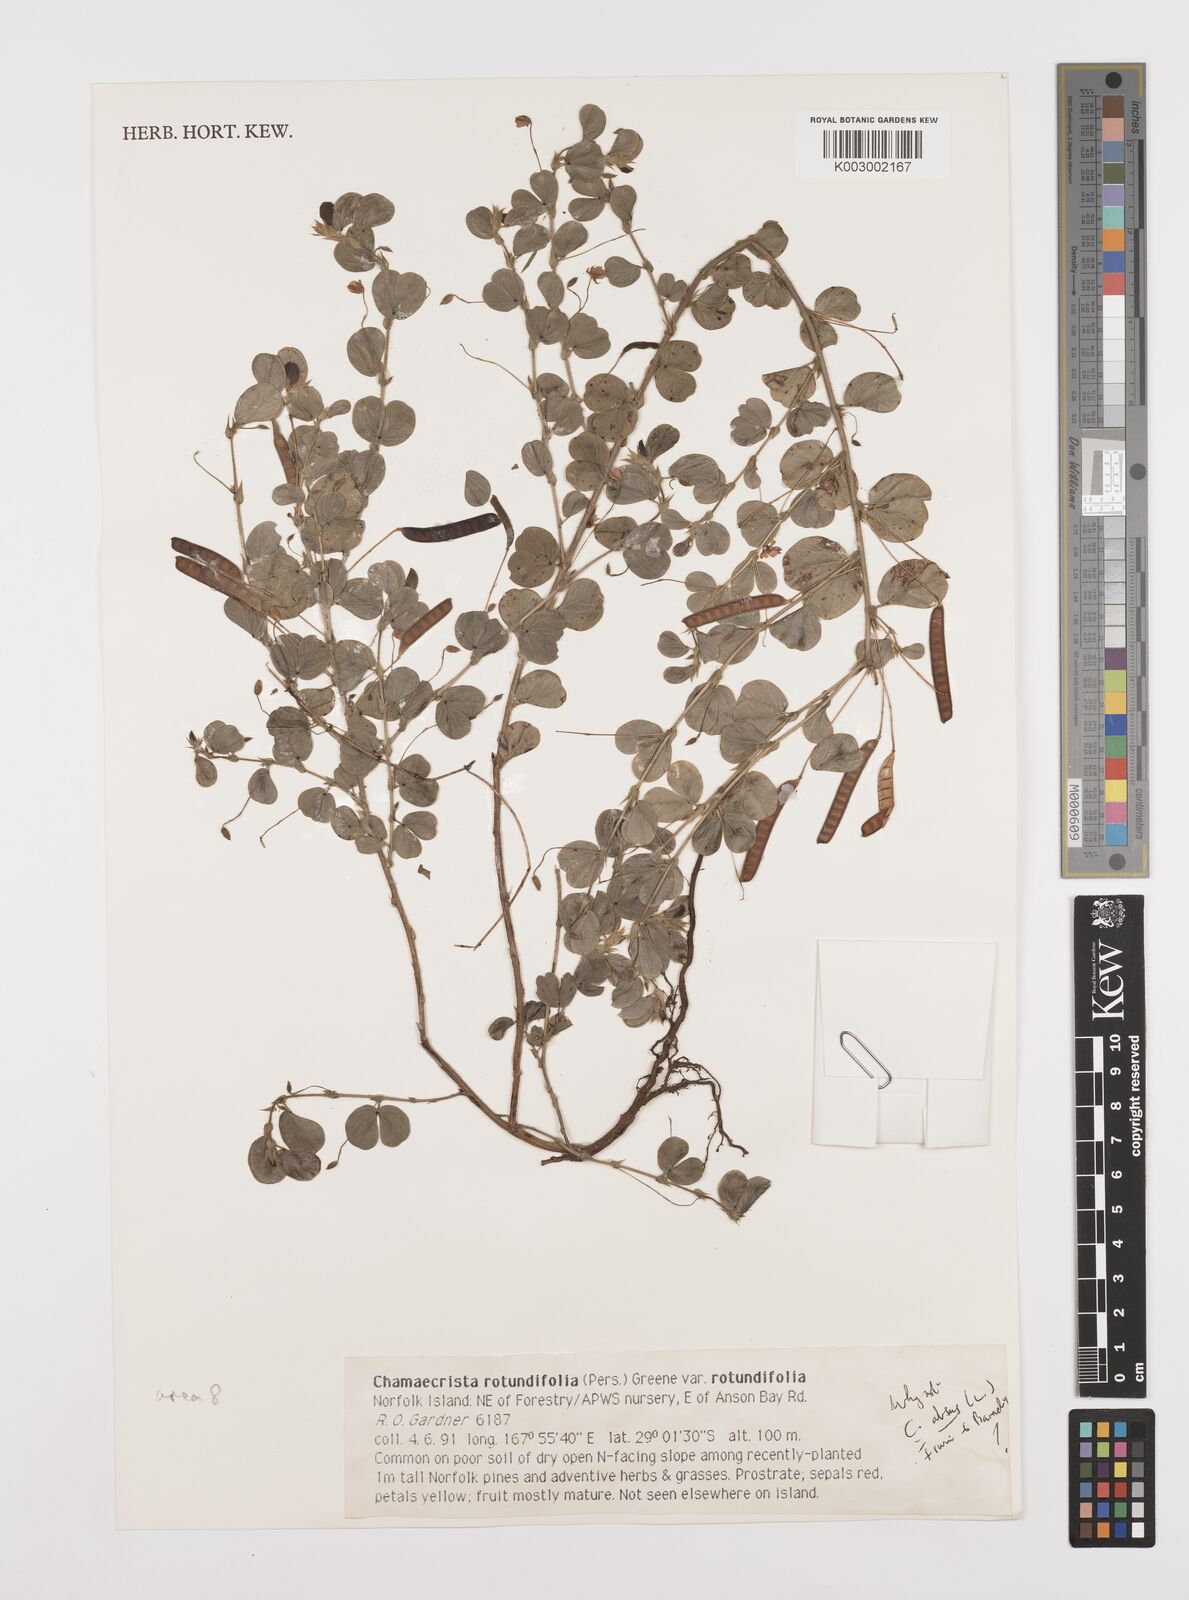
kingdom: Plantae
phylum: Tracheophyta
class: Magnoliopsida
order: Fabales
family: Fabaceae
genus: Chamaecrista
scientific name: Chamaecrista rotundifolia
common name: Round-leaf cassia
